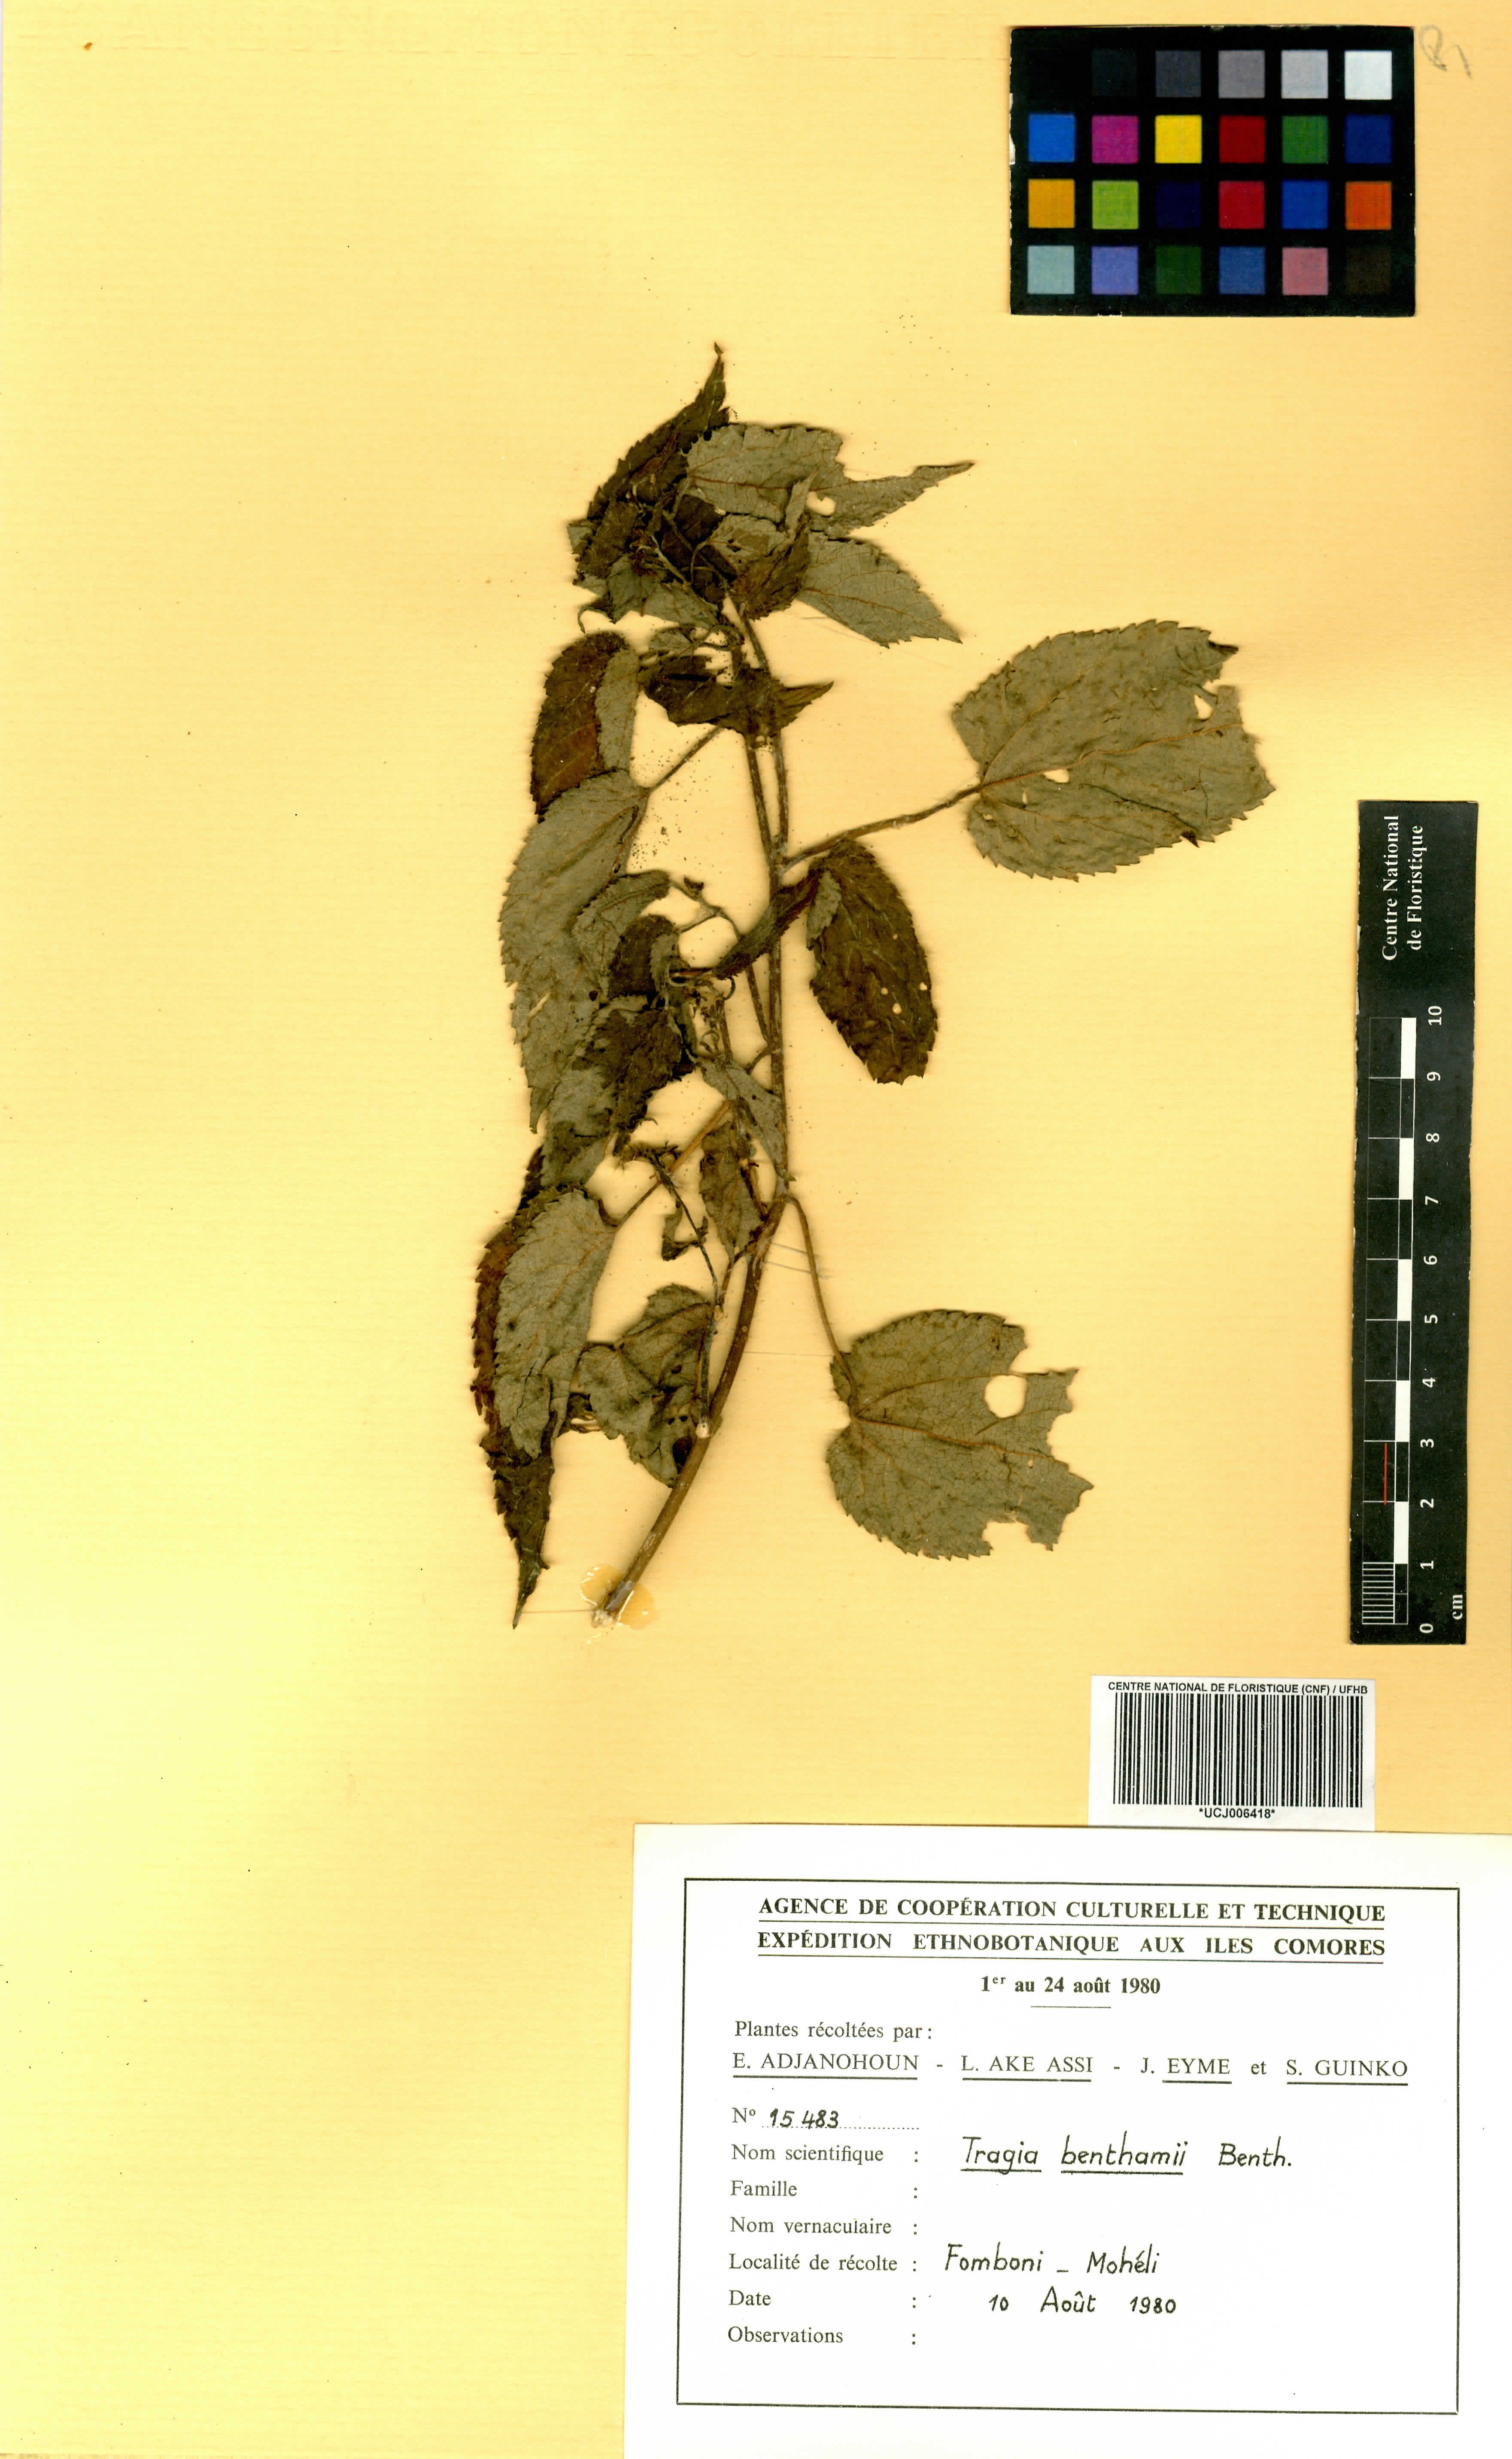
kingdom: Plantae
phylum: Tracheophyta
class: Magnoliopsida
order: Malpighiales
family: Euphorbiaceae
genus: Tragia
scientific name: Tragia benthamii
